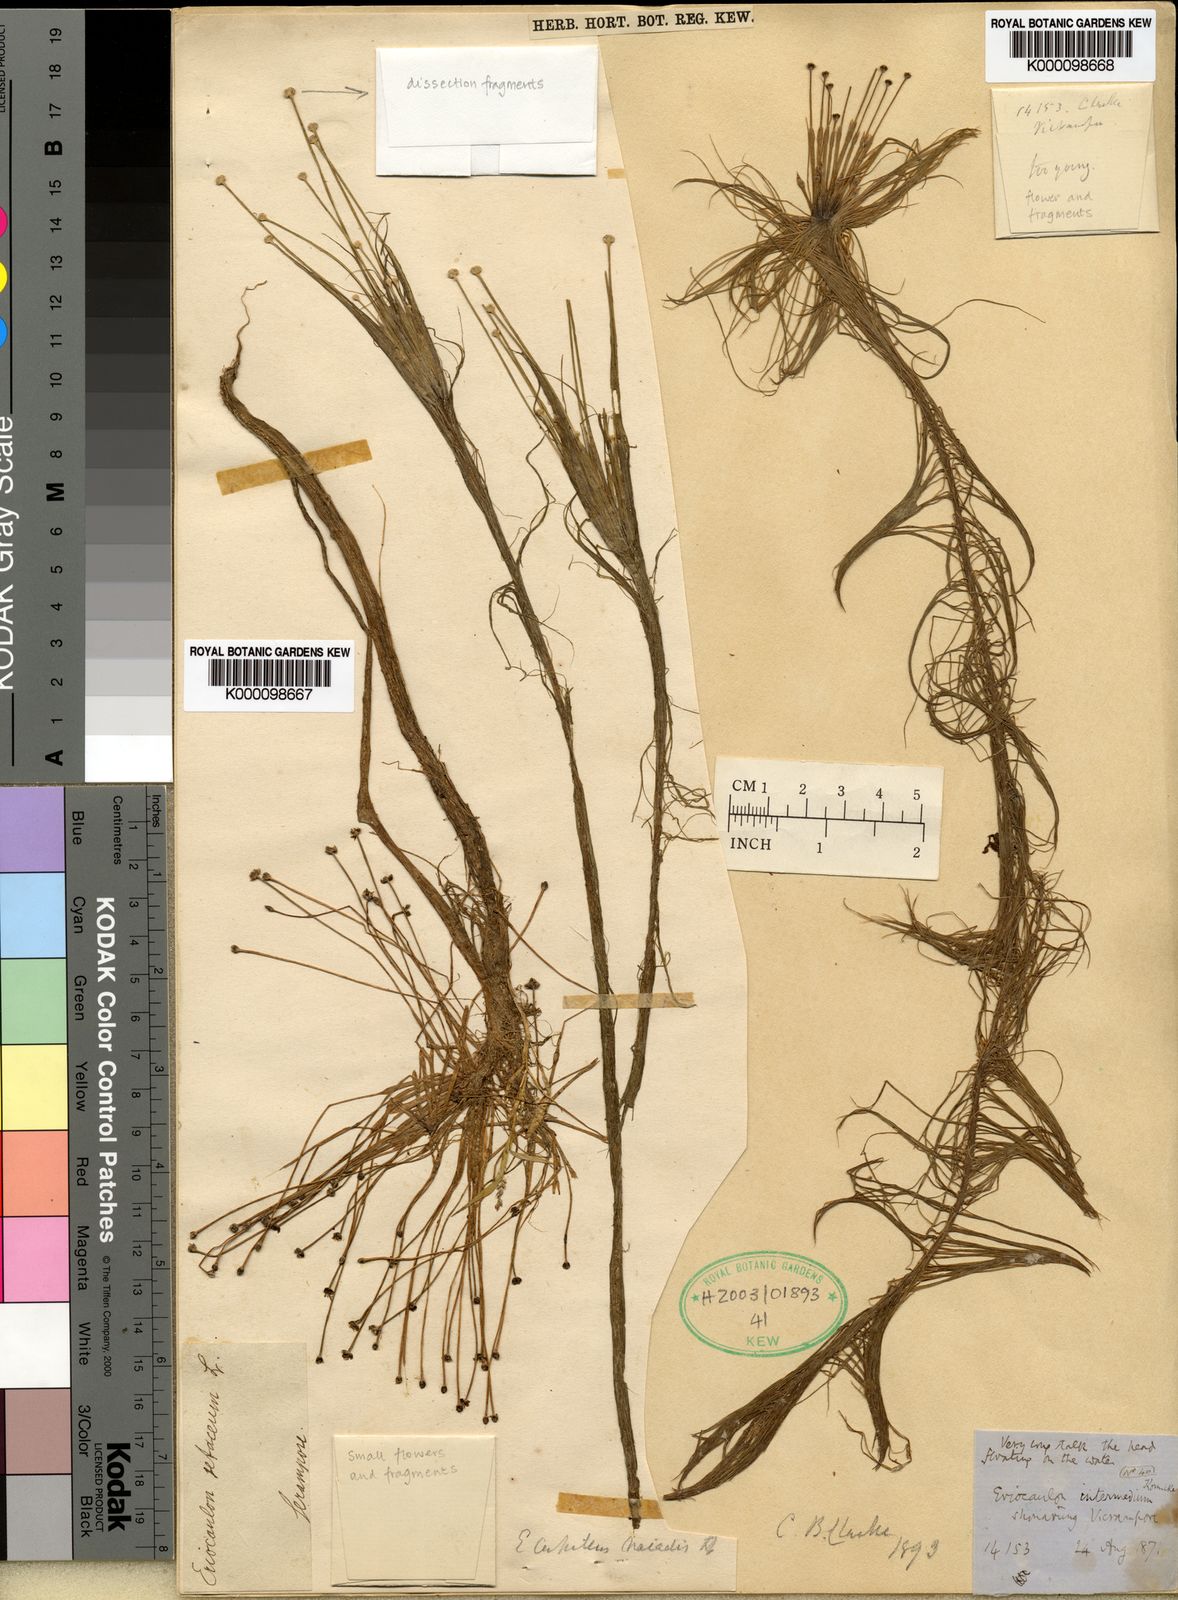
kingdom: Plantae
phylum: Tracheophyta
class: Liliopsida
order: Poales
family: Eriocaulaceae
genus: Eriocaulon
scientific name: Eriocaulon setaceum
